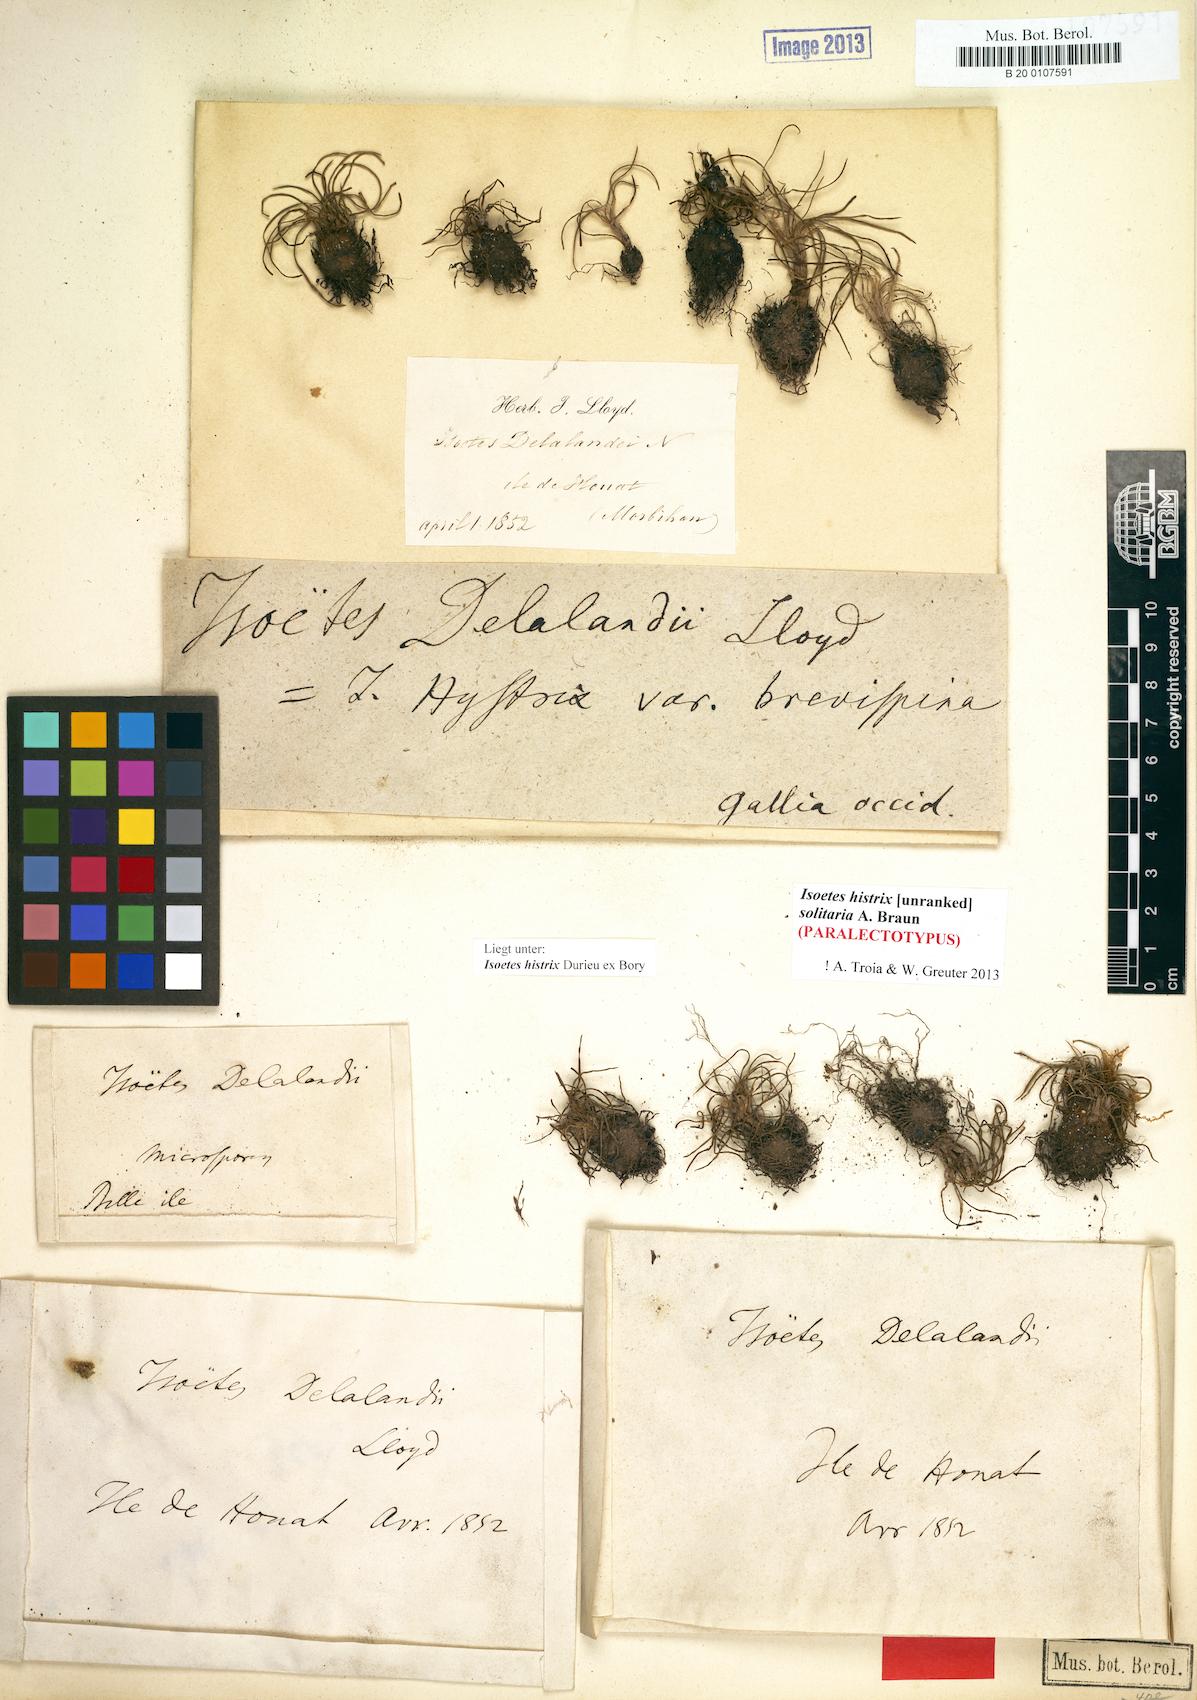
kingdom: Plantae
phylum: Tracheophyta
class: Lycopodiopsida
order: Isoetales
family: Isoetaceae
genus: Isoetes
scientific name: Isoetes histrix
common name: Land quillwort
